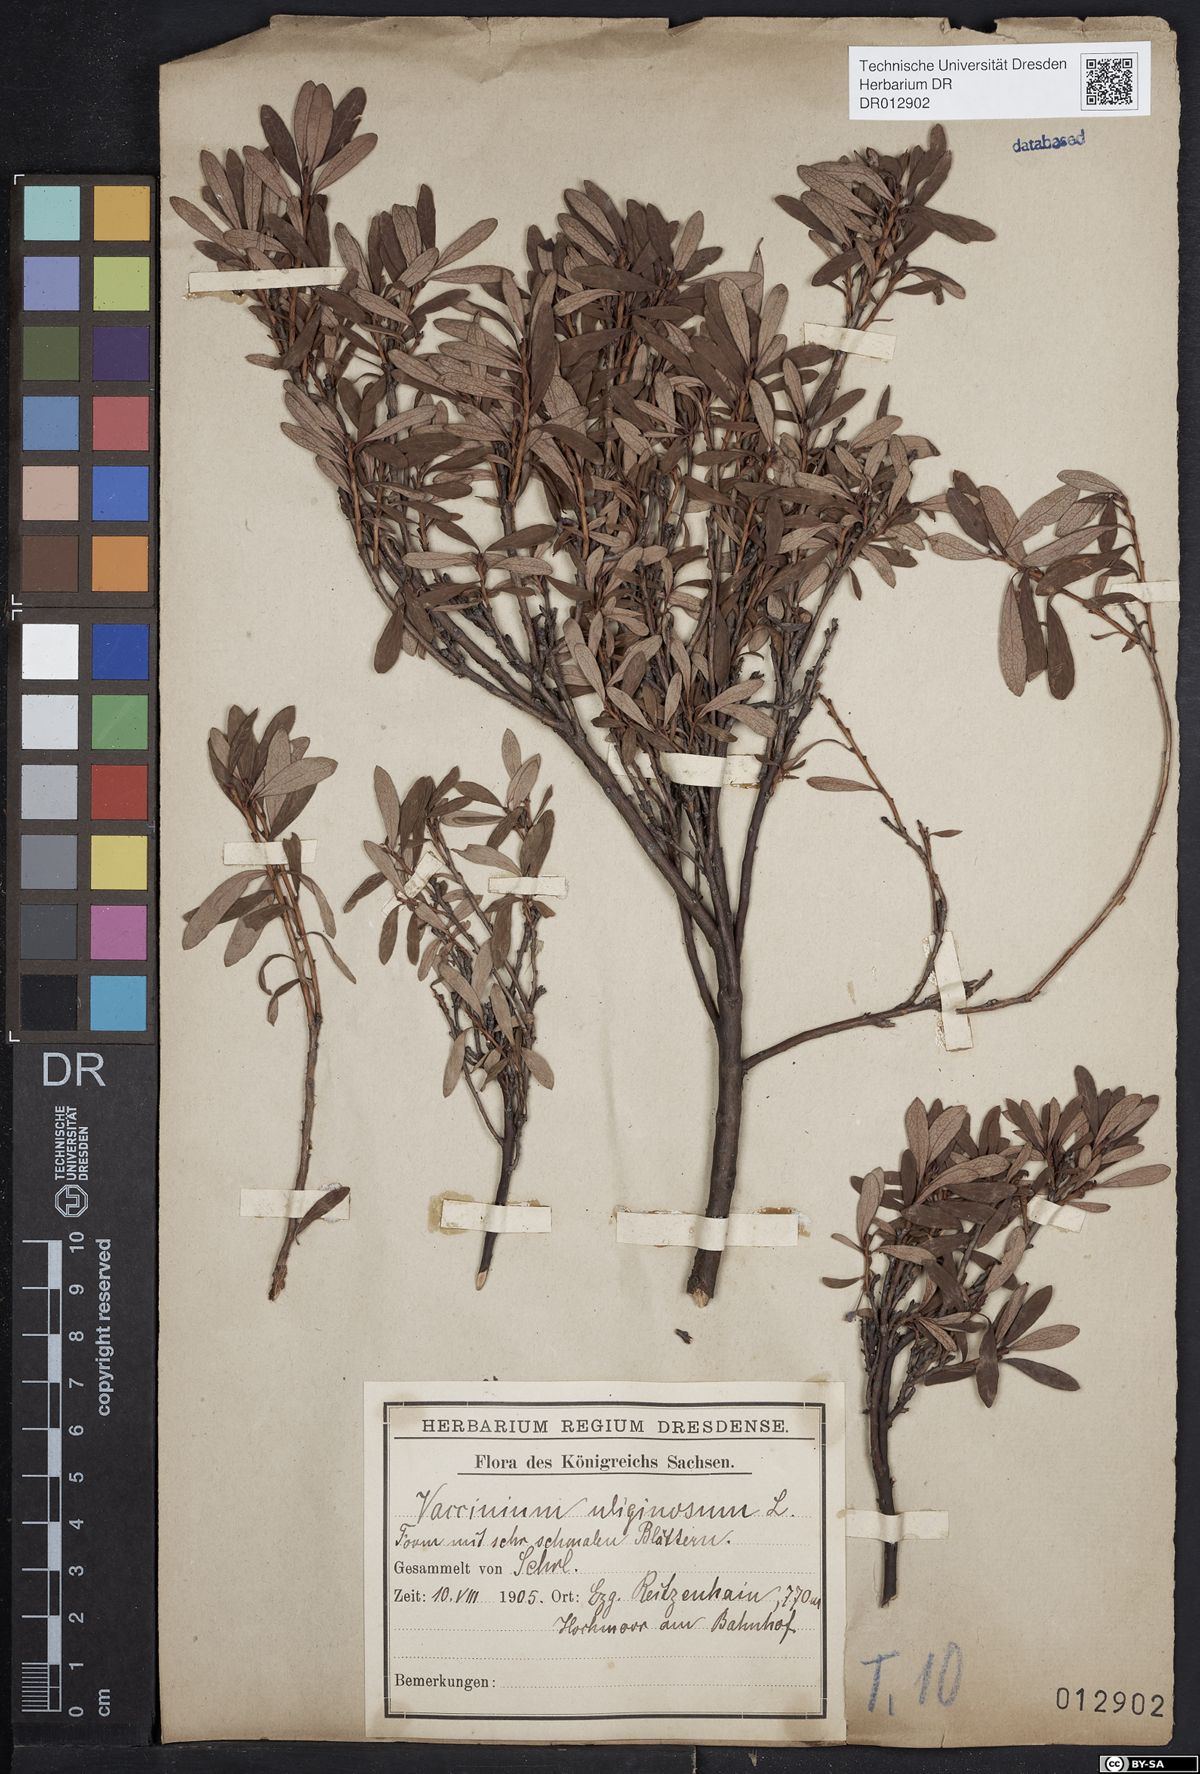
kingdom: Plantae
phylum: Tracheophyta
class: Magnoliopsida
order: Ericales
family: Ericaceae
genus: Vaccinium
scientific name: Vaccinium uliginosum
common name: Bog bilberry
